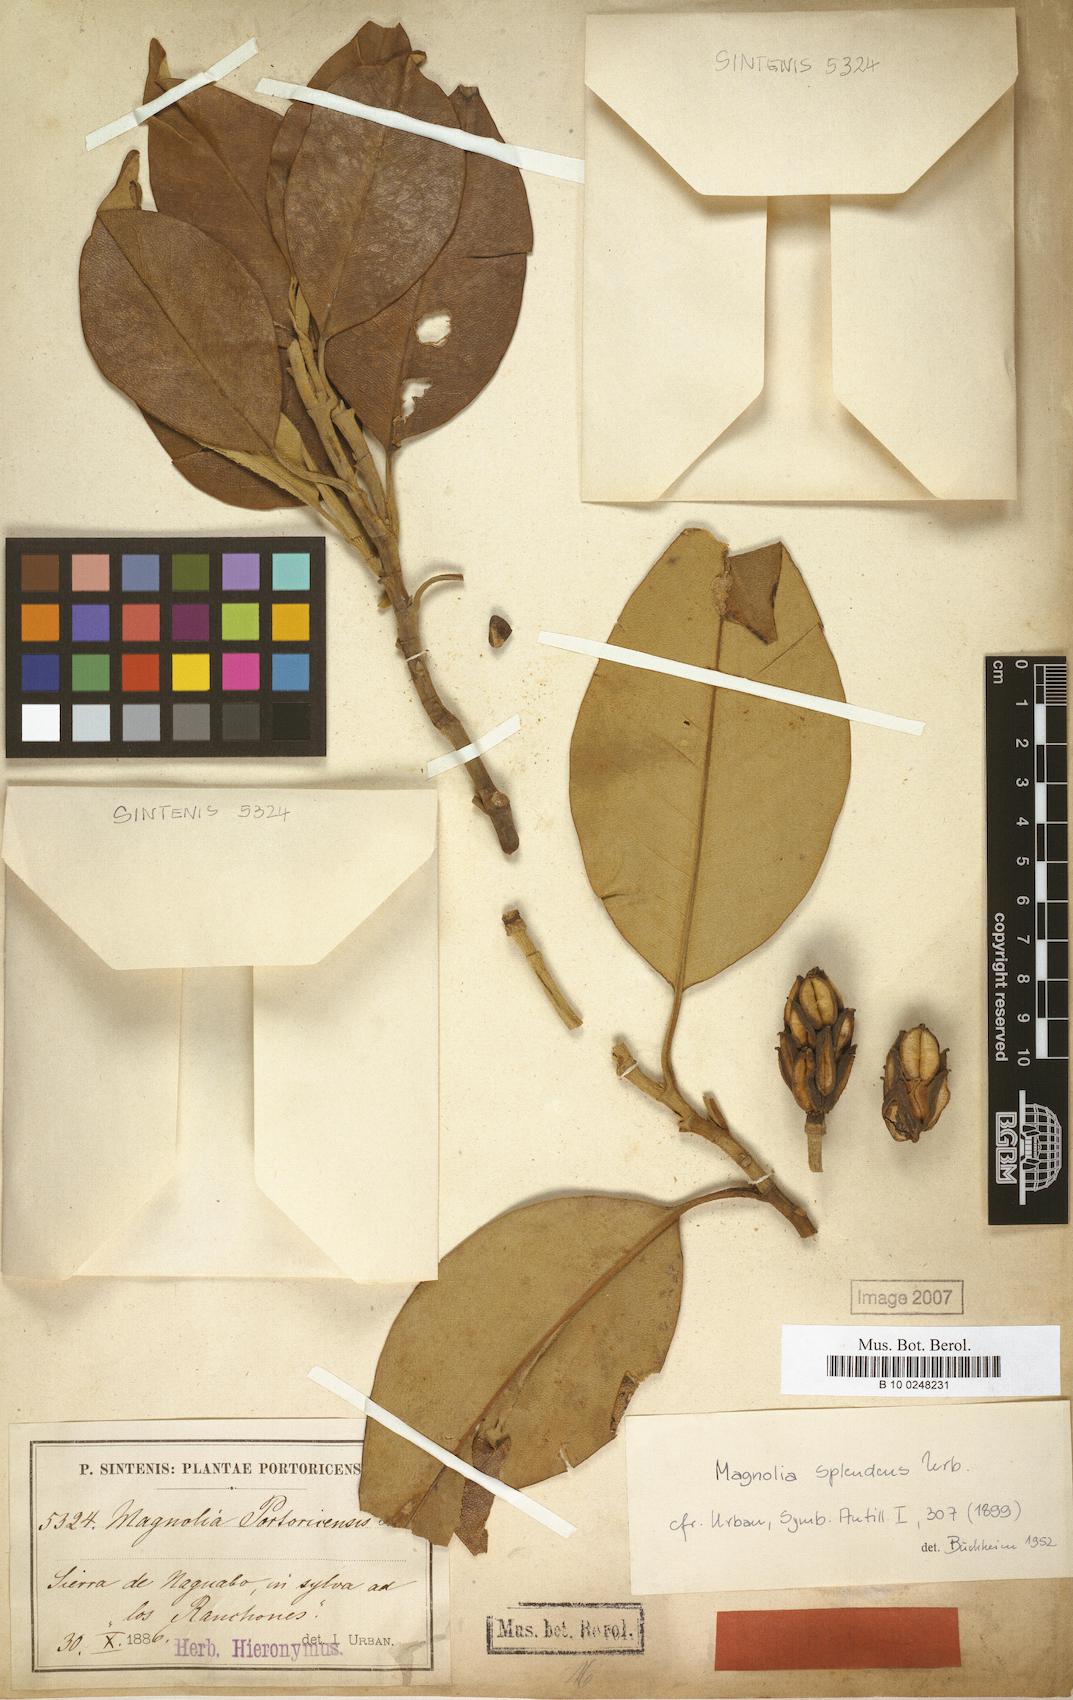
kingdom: Plantae
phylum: Tracheophyta
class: Magnoliopsida
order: Magnoliales
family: Magnoliaceae
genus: Magnolia
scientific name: Magnolia splendens
